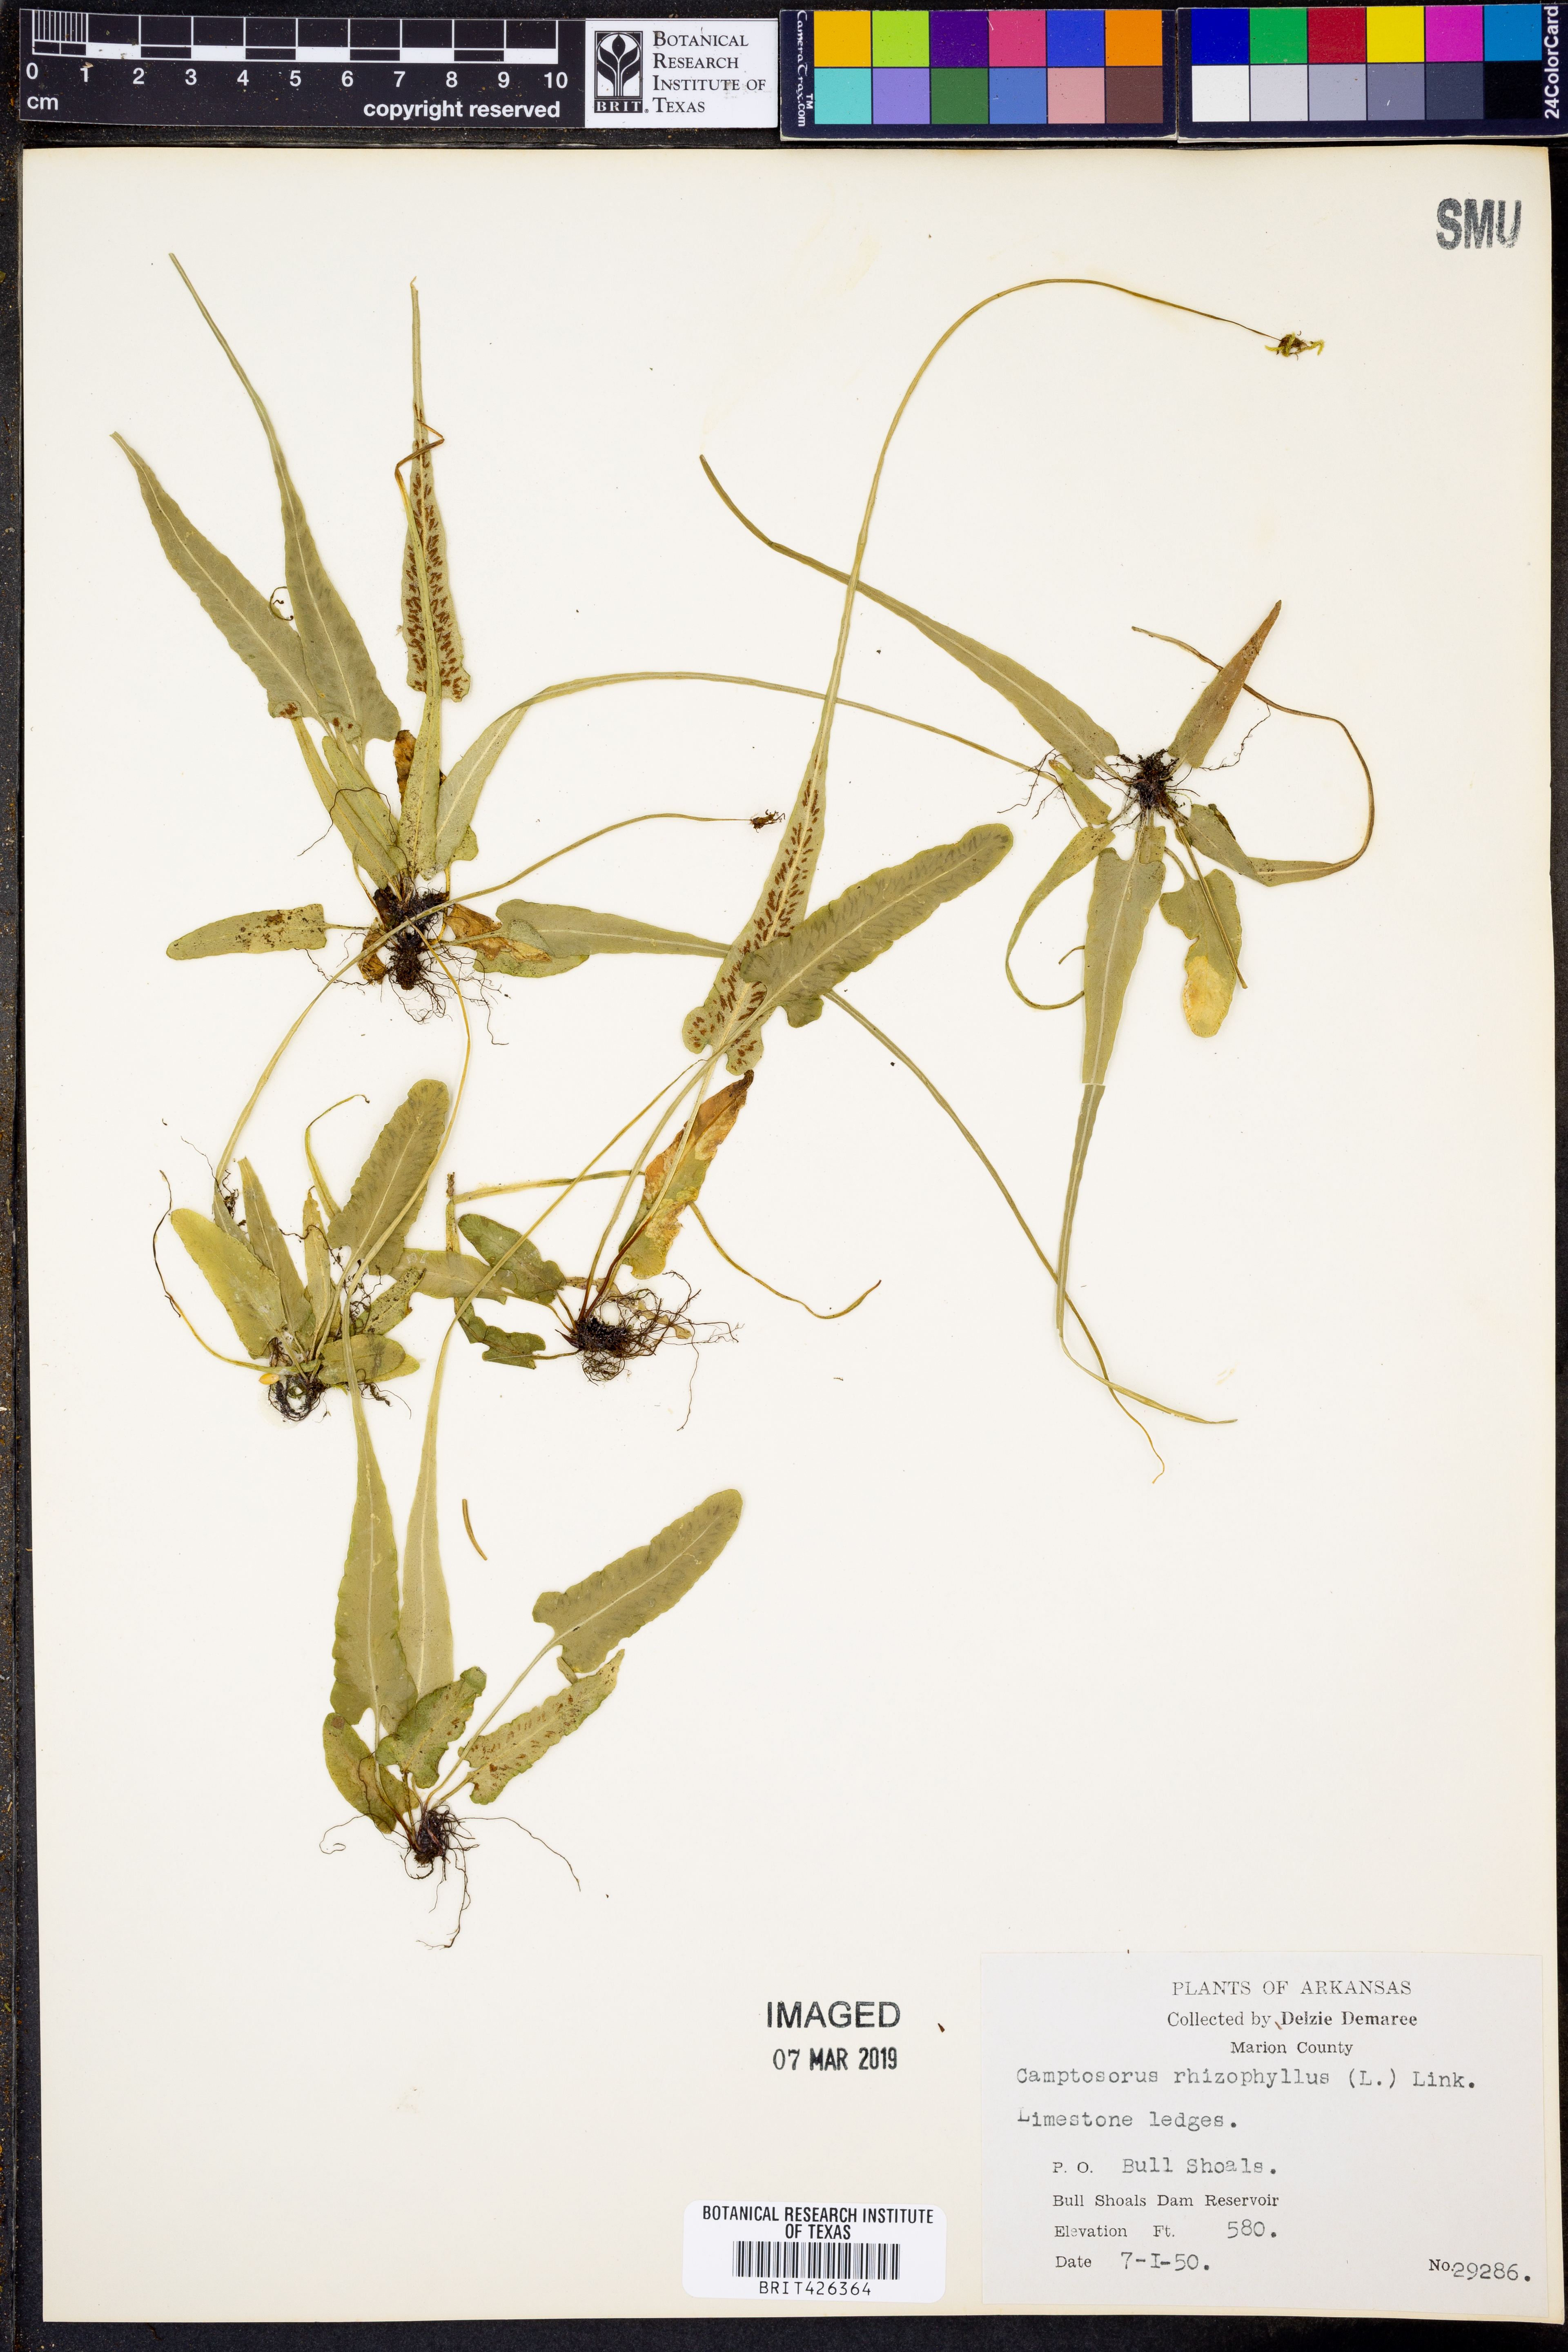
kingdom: Plantae
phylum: Tracheophyta
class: Polypodiopsida
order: Polypodiales
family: Aspleniaceae
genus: Asplenium
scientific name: Asplenium rhizophyllum
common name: Walking fern
